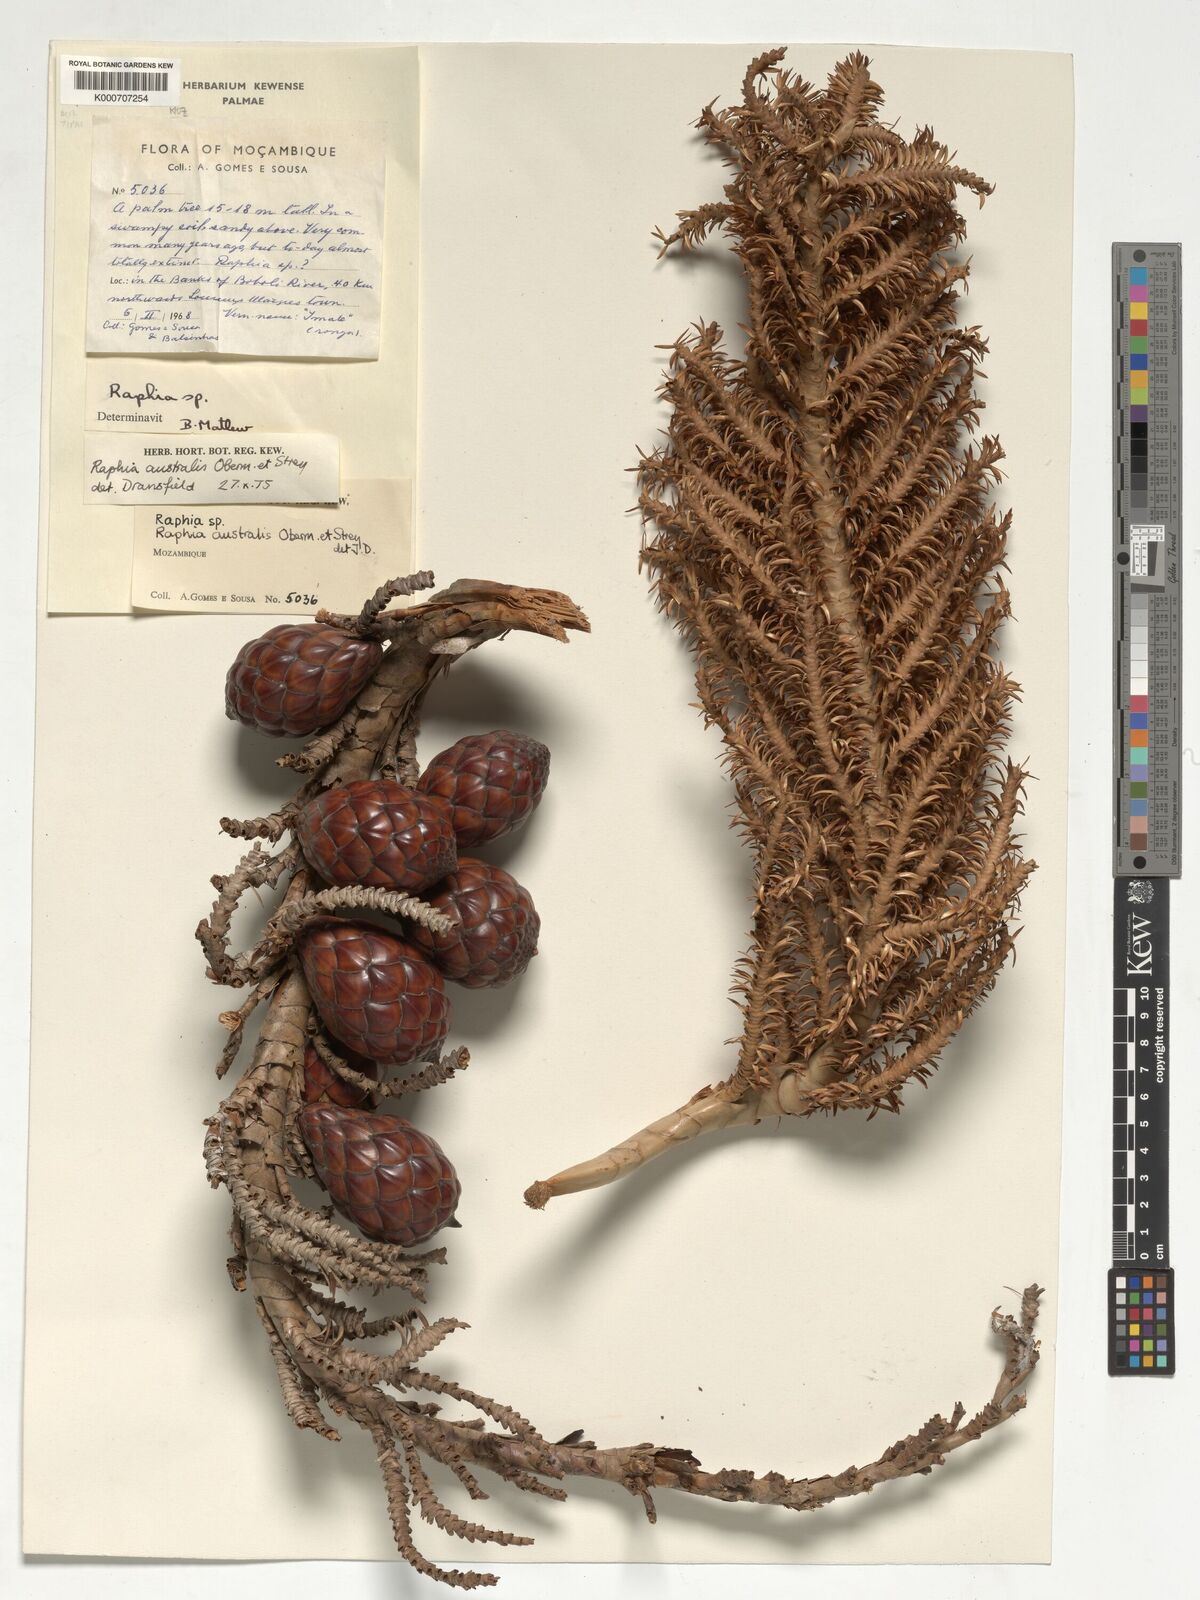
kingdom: Plantae
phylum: Tracheophyta
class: Liliopsida
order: Arecales
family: Arecaceae
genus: Raphia
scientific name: Raphia australis
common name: Giant palm
